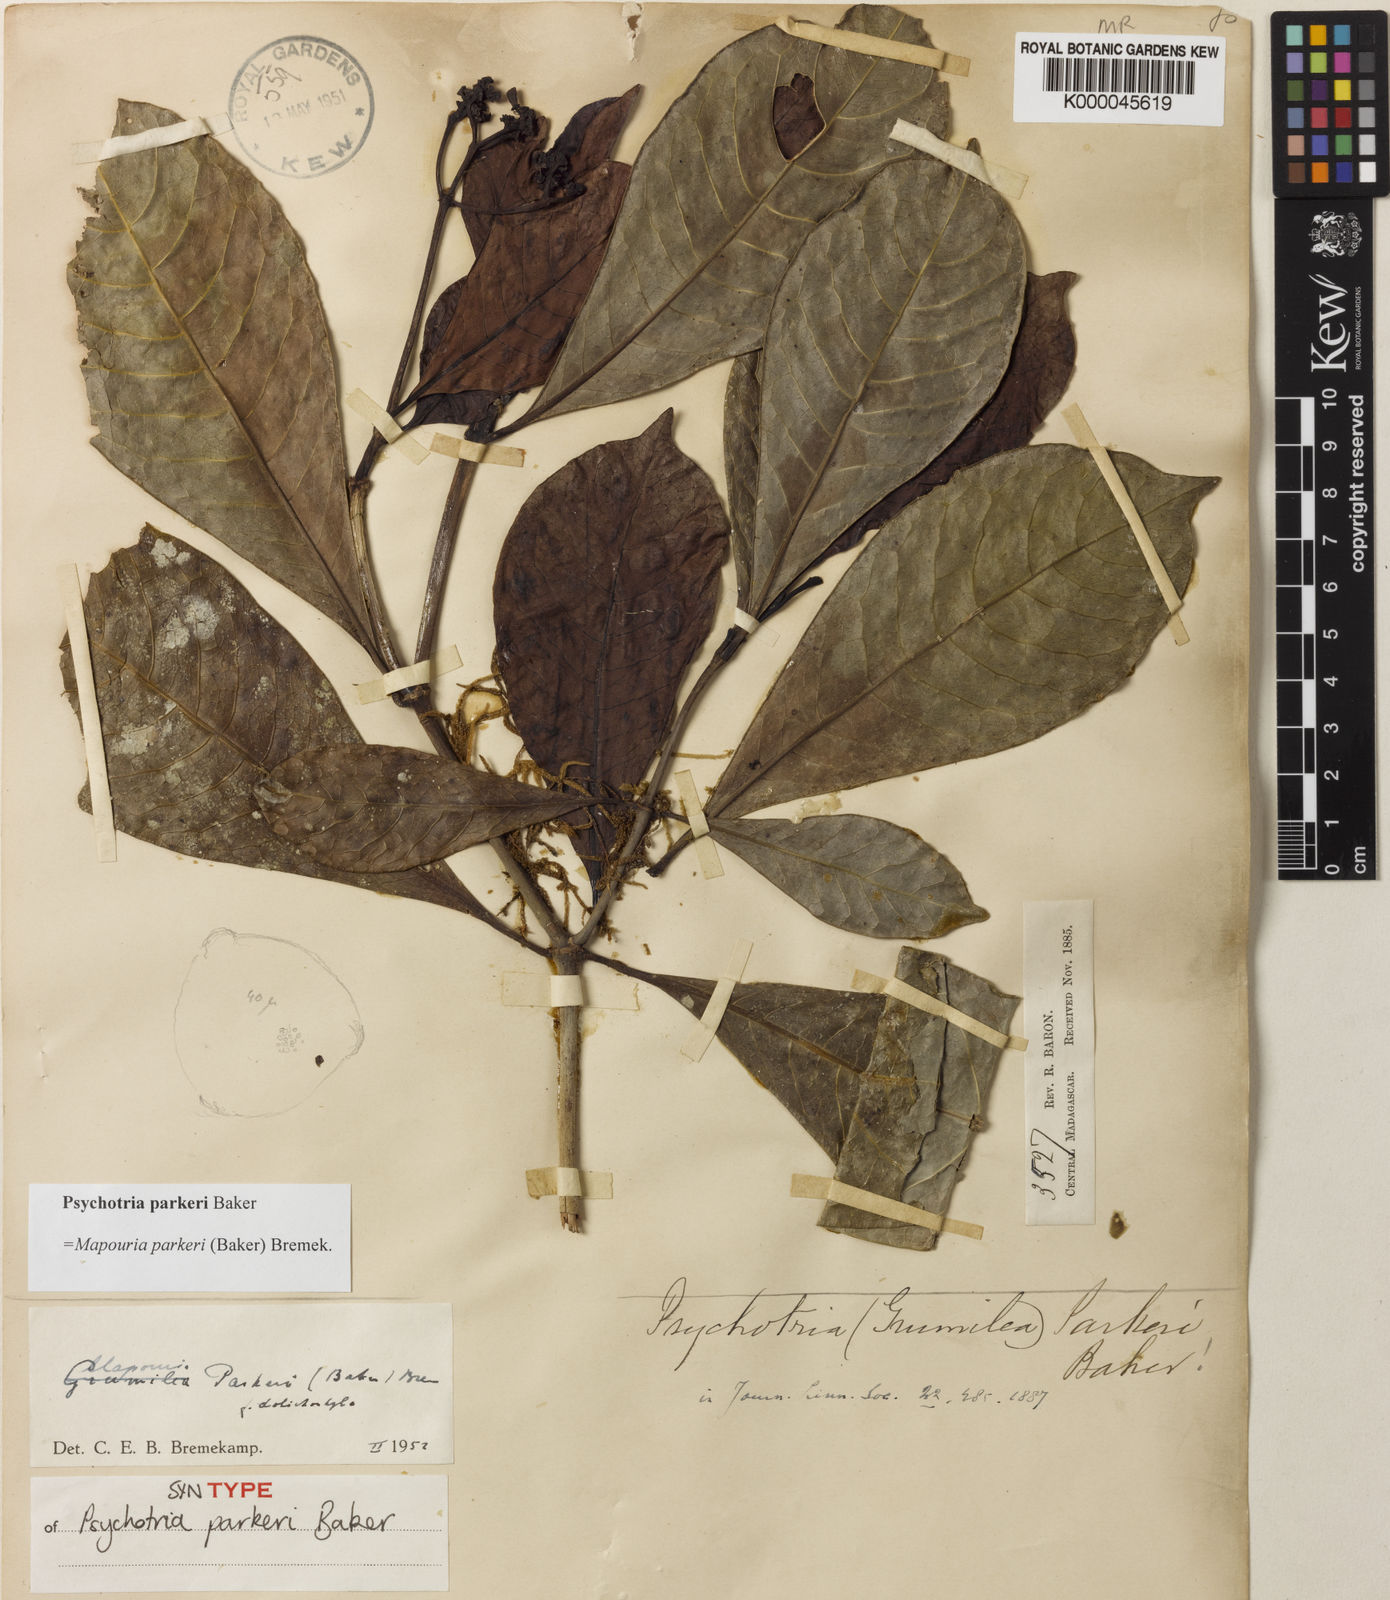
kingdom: Plantae
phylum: Tracheophyta
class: Magnoliopsida
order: Gentianales
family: Rubiaceae
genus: Psychotria
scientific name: Psychotria parkeri
